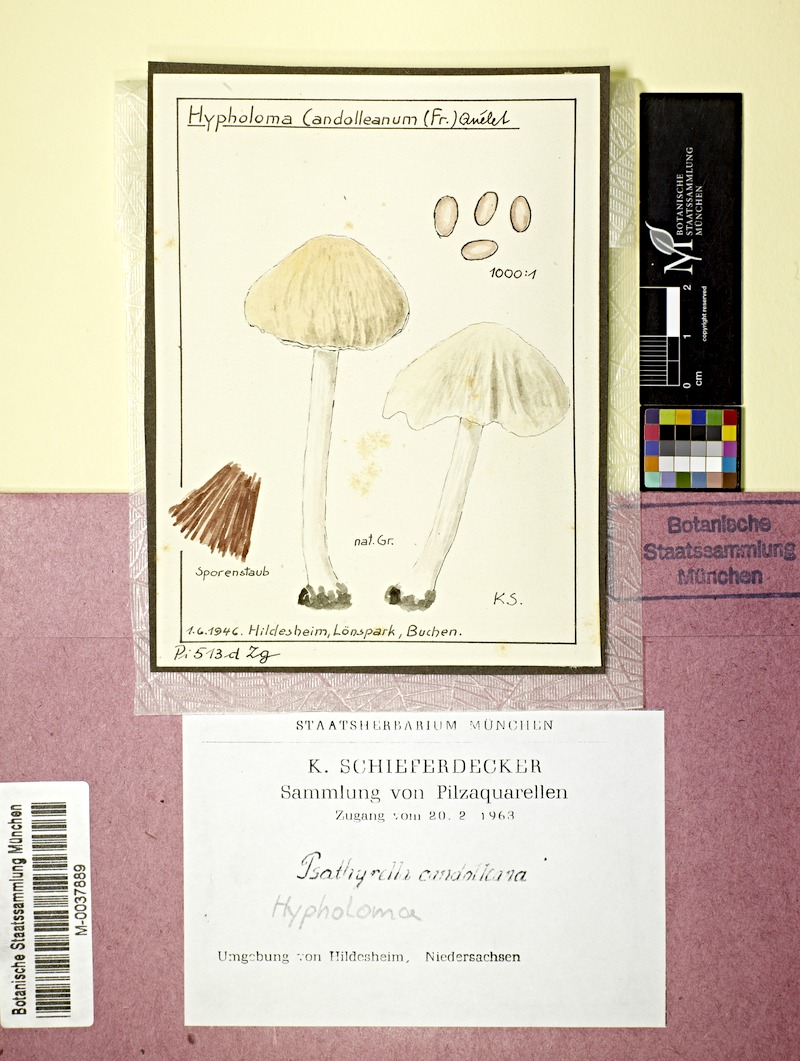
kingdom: Fungi
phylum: Basidiomycota
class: Agaricomycetes
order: Agaricales
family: Psathyrellaceae
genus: Candolleomyces
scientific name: Candolleomyces candolleanus
